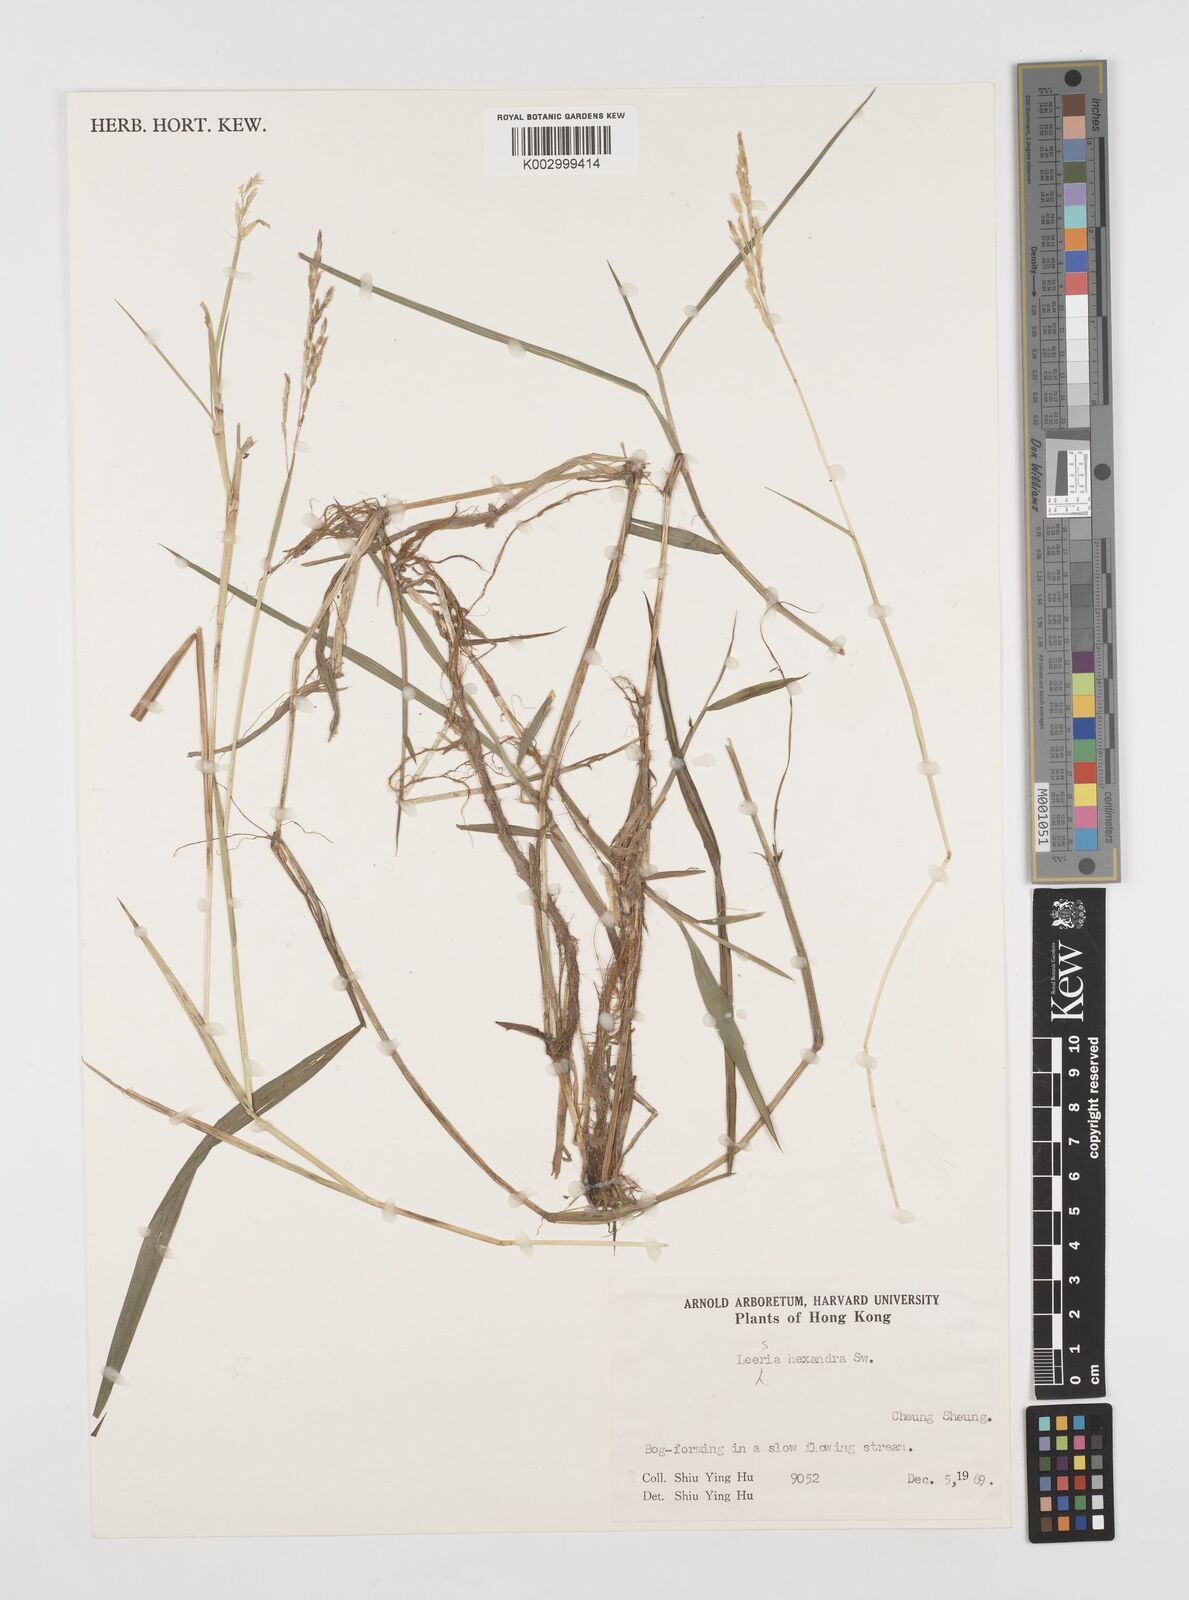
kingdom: Plantae
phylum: Tracheophyta
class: Liliopsida
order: Poales
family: Poaceae
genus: Leersia
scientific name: Leersia hexandra
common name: Southern cut grass
